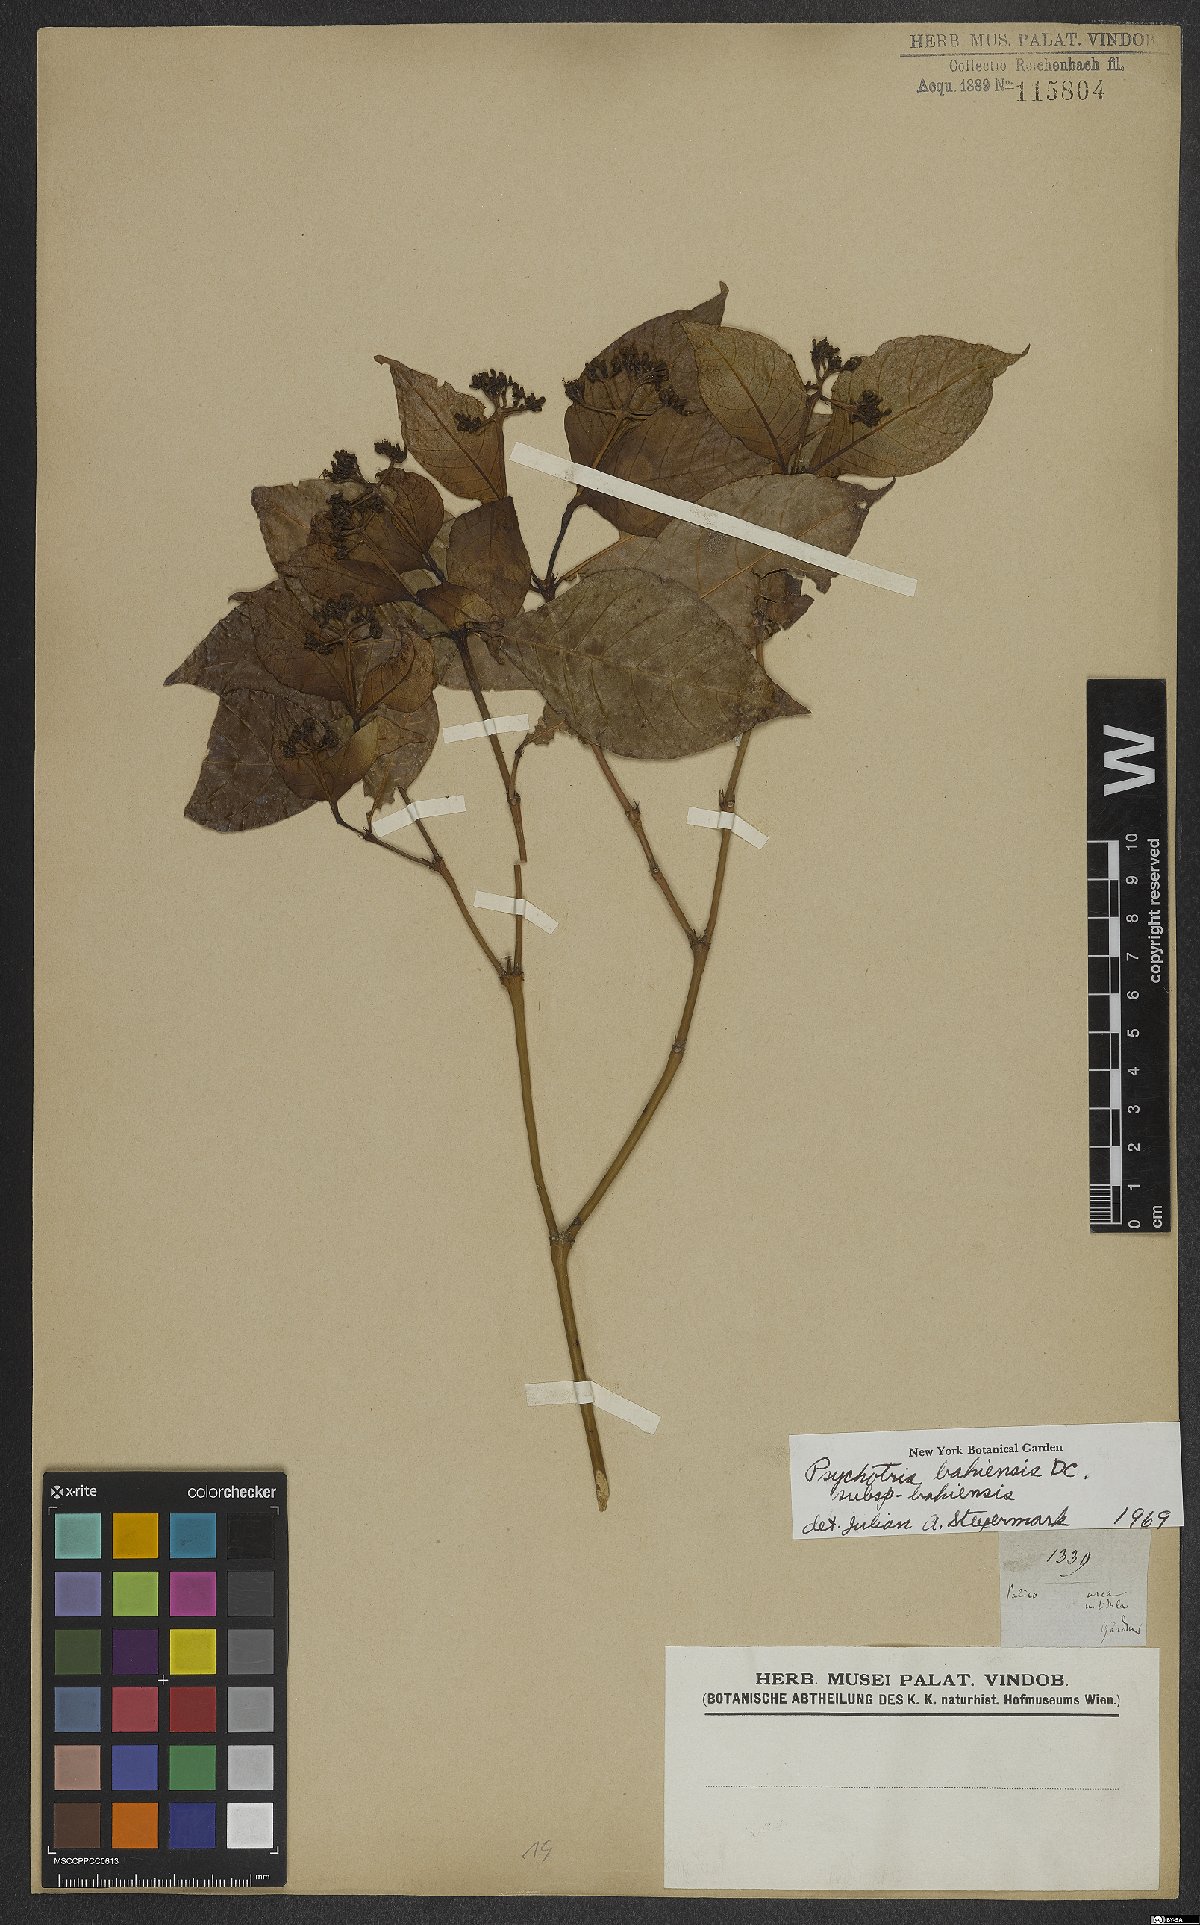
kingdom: Plantae
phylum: Tracheophyta
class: Magnoliopsida
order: Gentianales
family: Rubiaceae
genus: Psychotria
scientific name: Psychotria bahiensis
